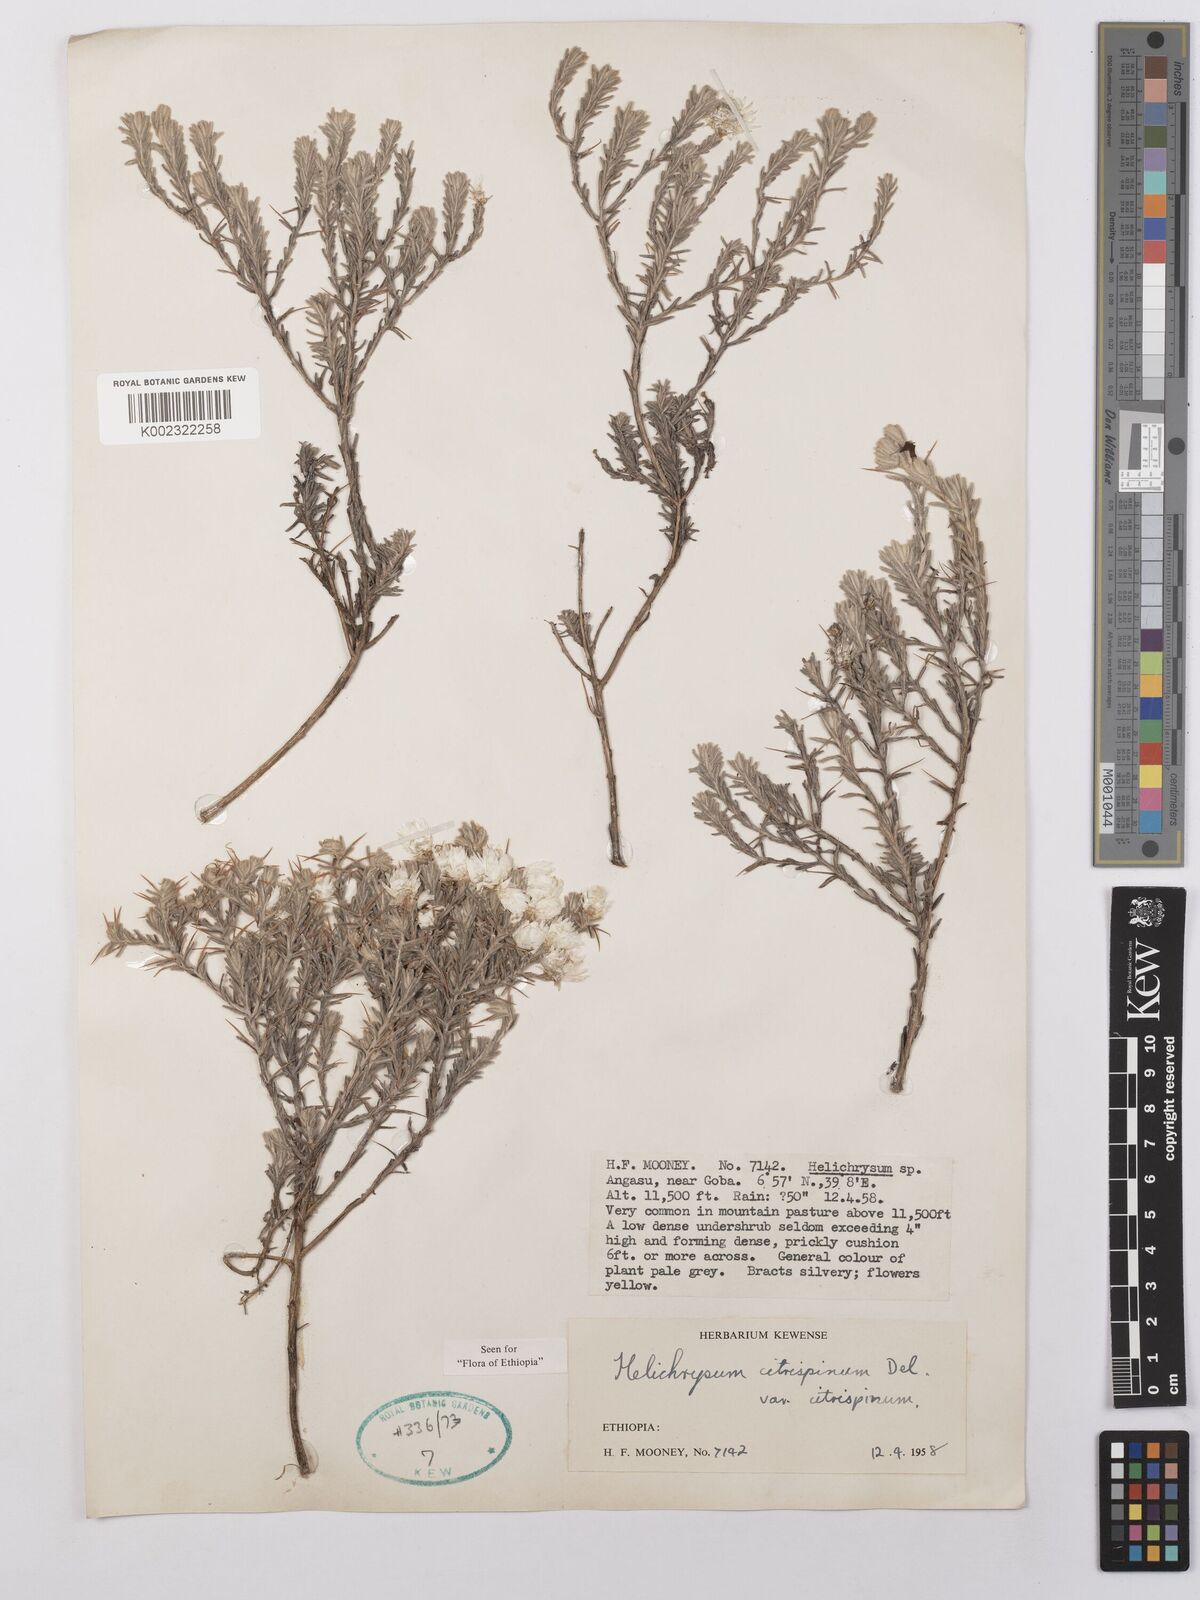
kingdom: Plantae
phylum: Tracheophyta
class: Magnoliopsida
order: Asterales
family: Asteraceae
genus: Helichrysum
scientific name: Helichrysum citrispinum
